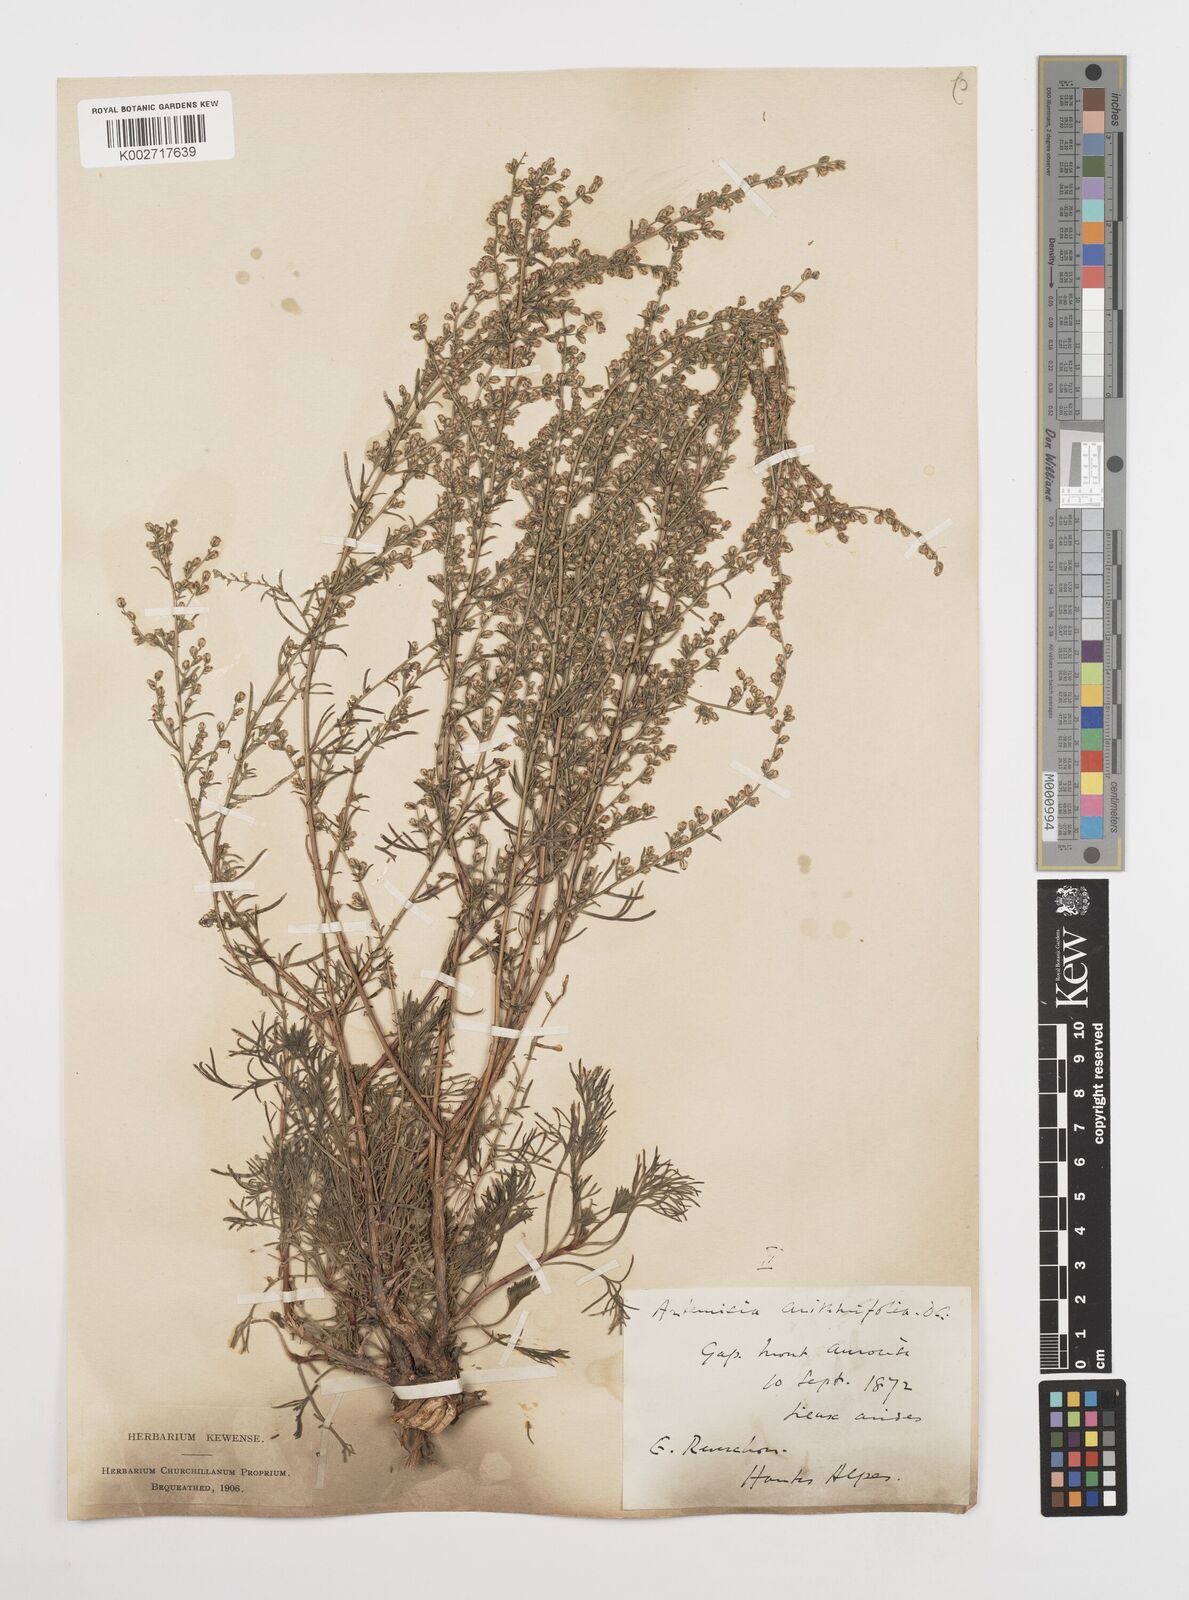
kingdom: Plantae
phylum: Tracheophyta
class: Magnoliopsida
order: Asterales
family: Asteraceae
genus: Artemisia
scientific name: Artemisia campestris
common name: Field wormwood
